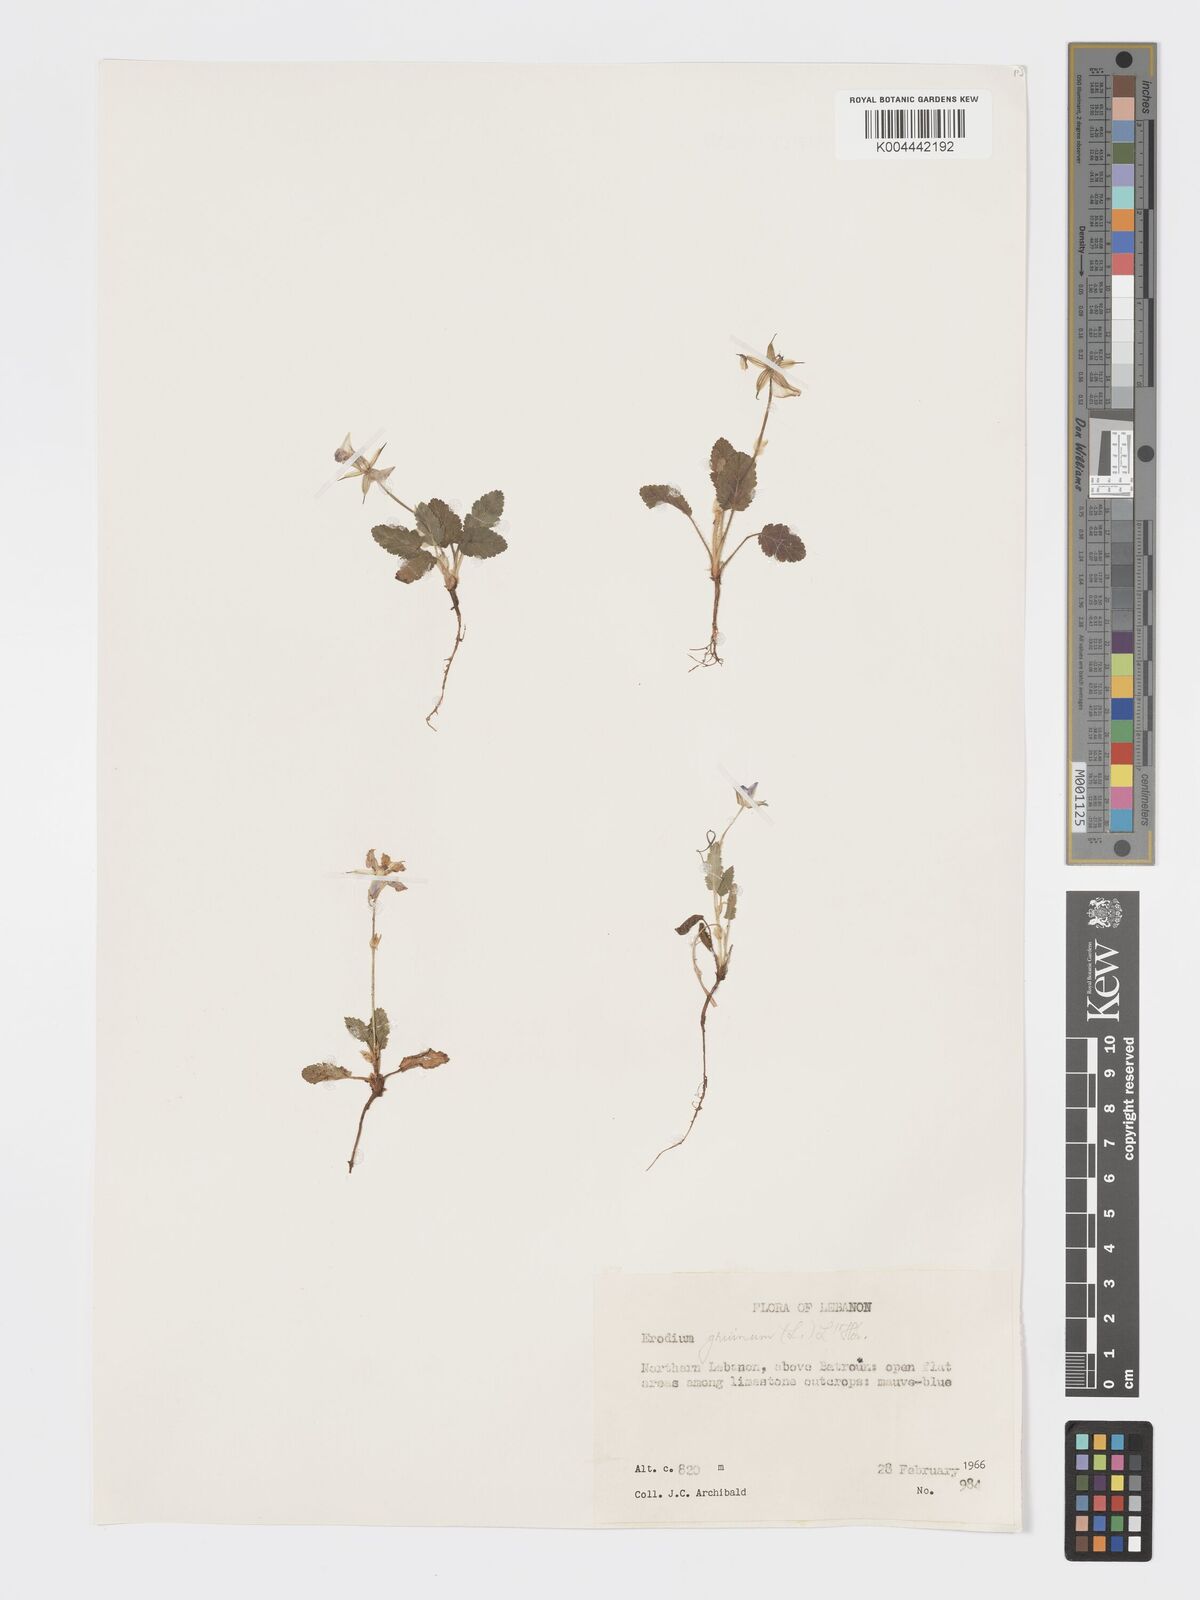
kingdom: Plantae
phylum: Tracheophyta
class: Magnoliopsida
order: Geraniales
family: Geraniaceae
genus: Erodium
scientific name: Erodium gruinum
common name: Iranian stork's bill
